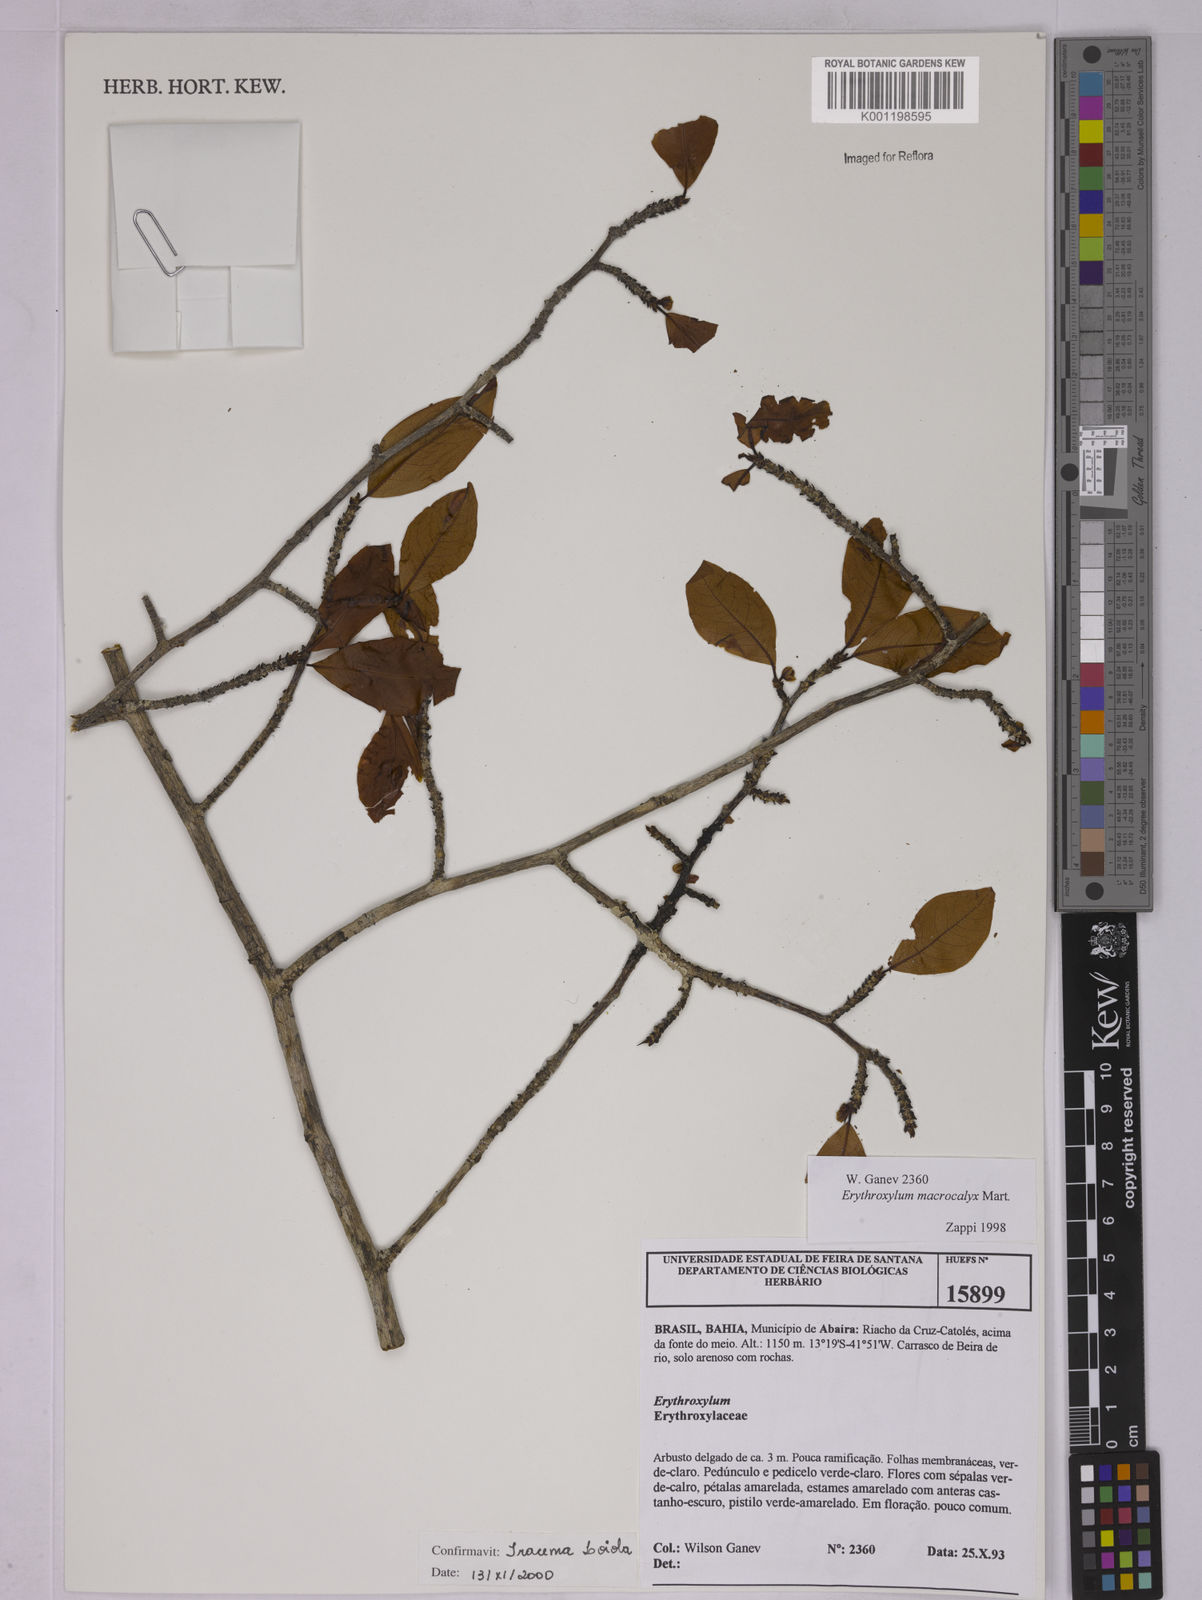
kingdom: Plantae
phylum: Tracheophyta
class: Magnoliopsida
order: Malpighiales
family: Erythroxylaceae
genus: Erythroxylum
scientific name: Erythroxylum macrocalyx
